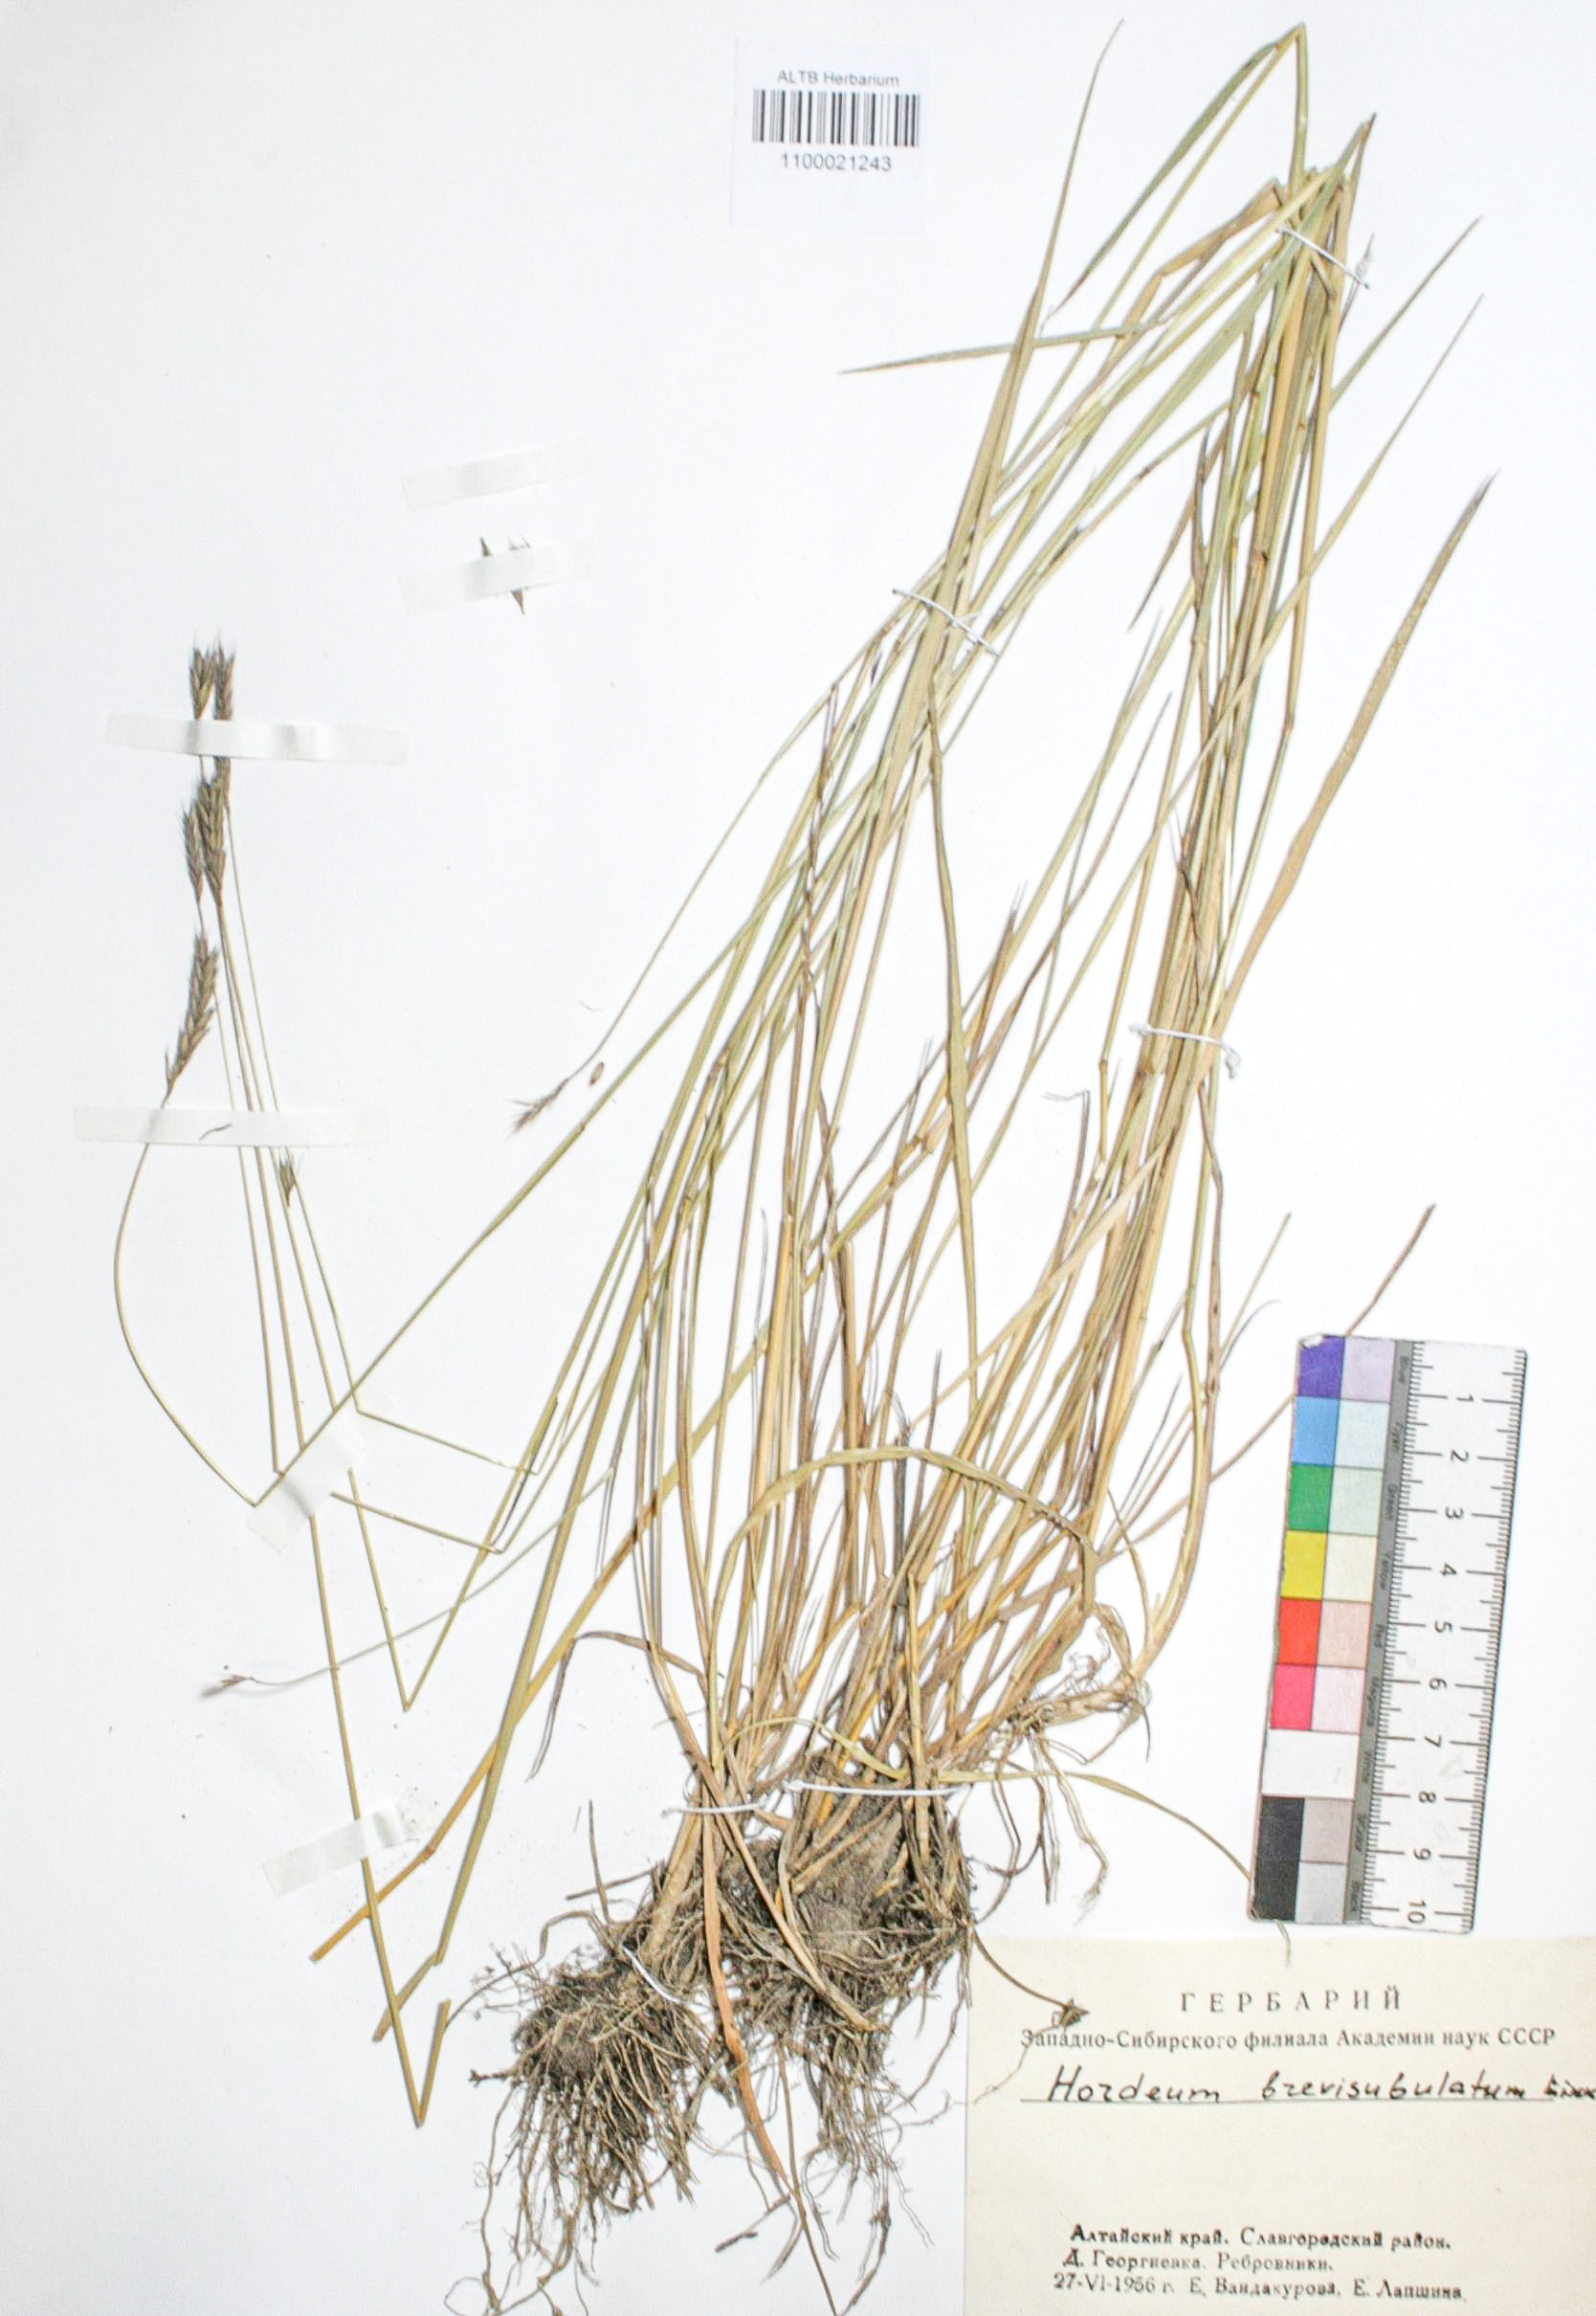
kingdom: Plantae
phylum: Tracheophyta
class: Liliopsida
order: Poales
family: Poaceae
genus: Hordeum
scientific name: Hordeum brevisubulatum
